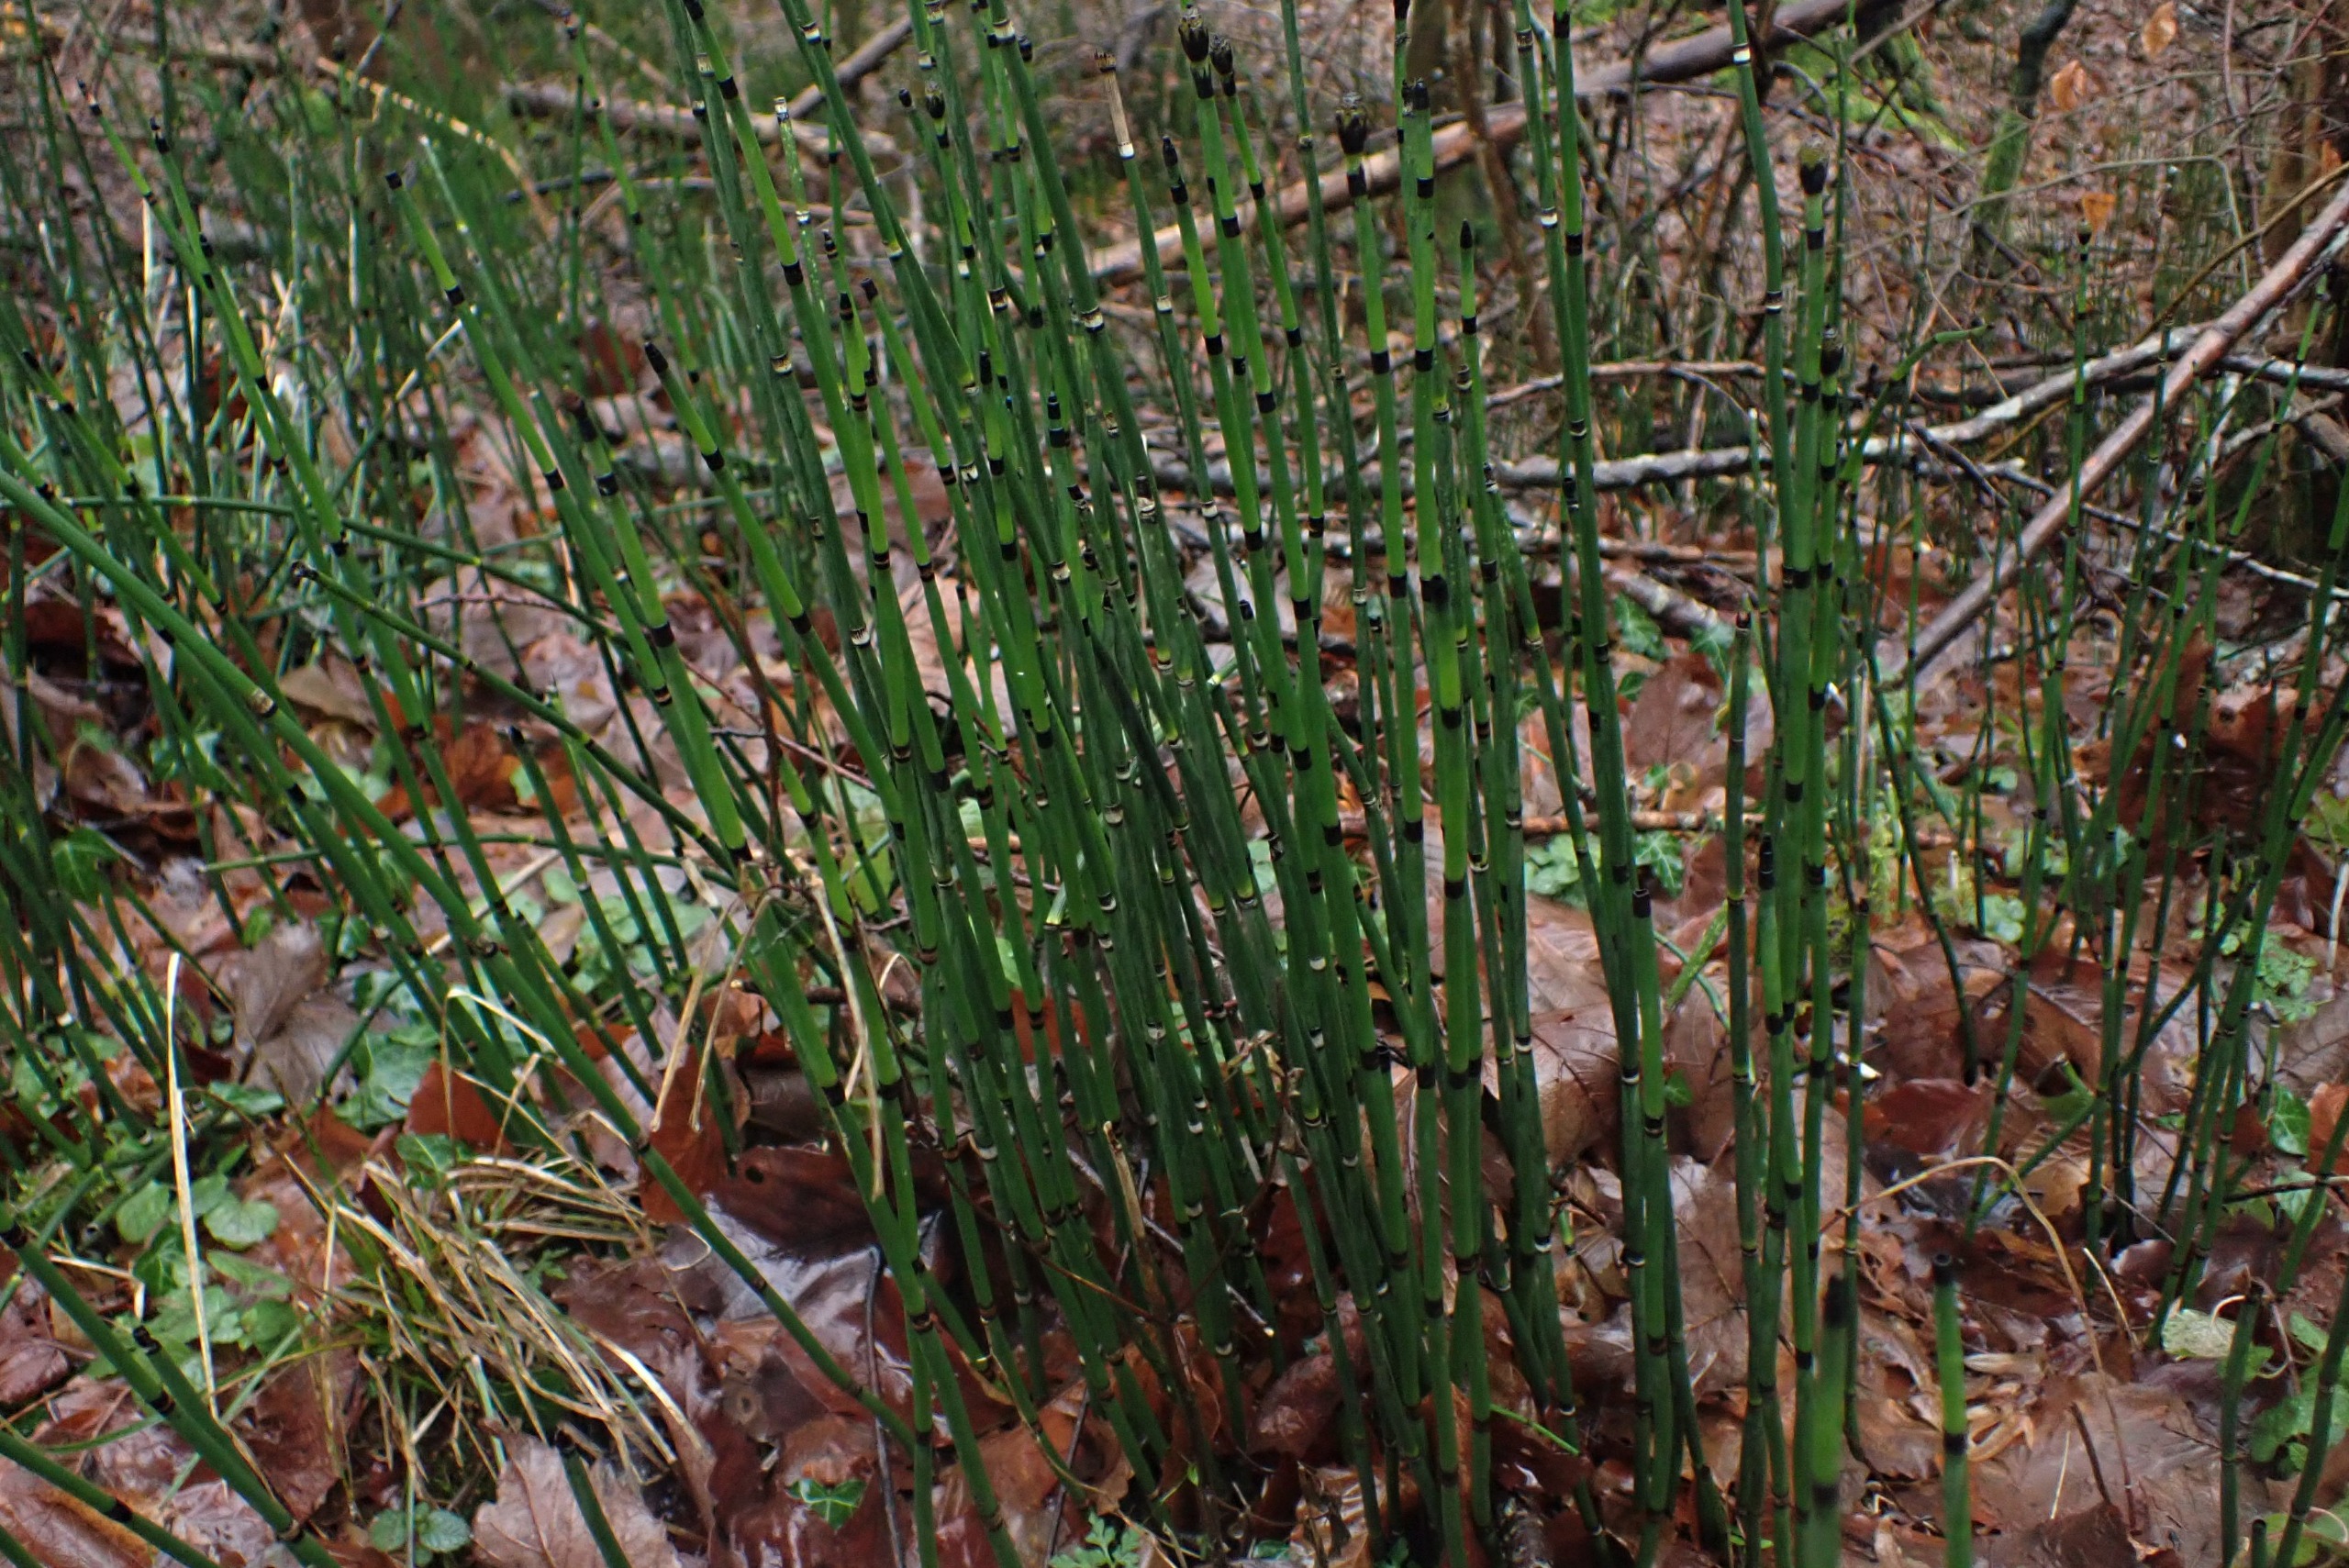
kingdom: Plantae
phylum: Tracheophyta
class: Polypodiopsida
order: Equisetales
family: Equisetaceae
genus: Equisetum
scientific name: Equisetum hyemale
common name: Skavgræs
